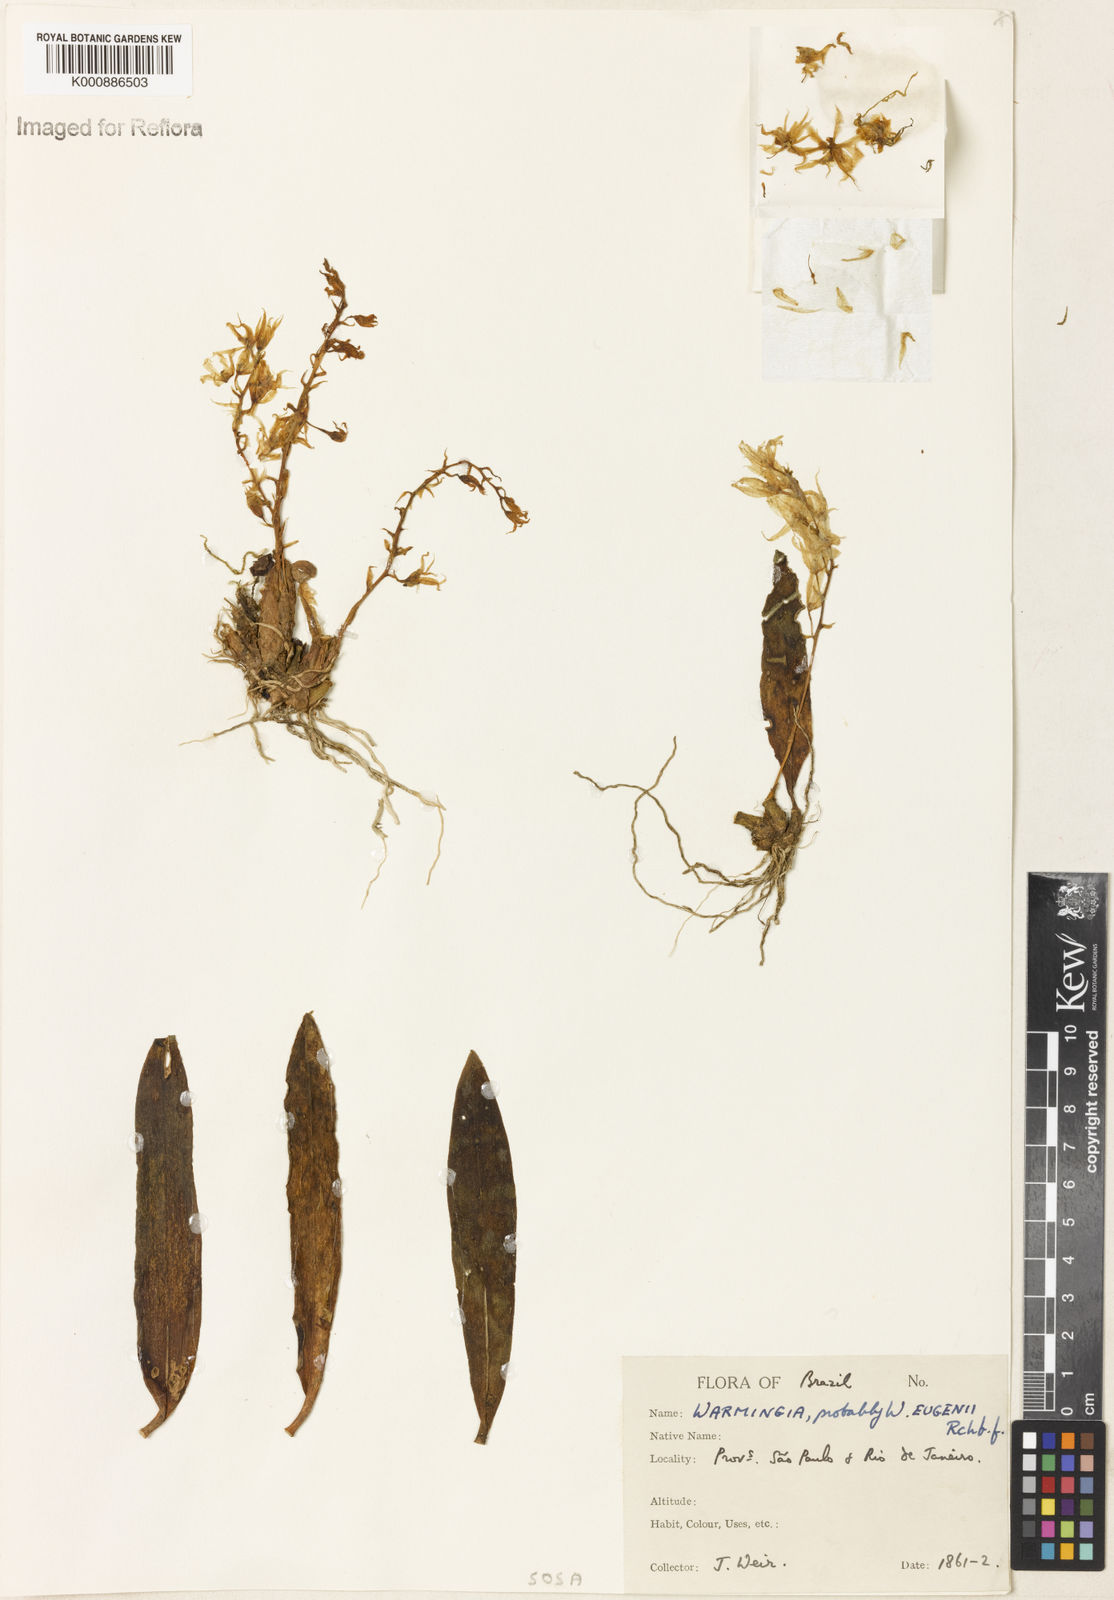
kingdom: Plantae
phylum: Tracheophyta
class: Liliopsida
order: Asparagales
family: Orchidaceae
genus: Warmingia
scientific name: Warmingia eugenii
